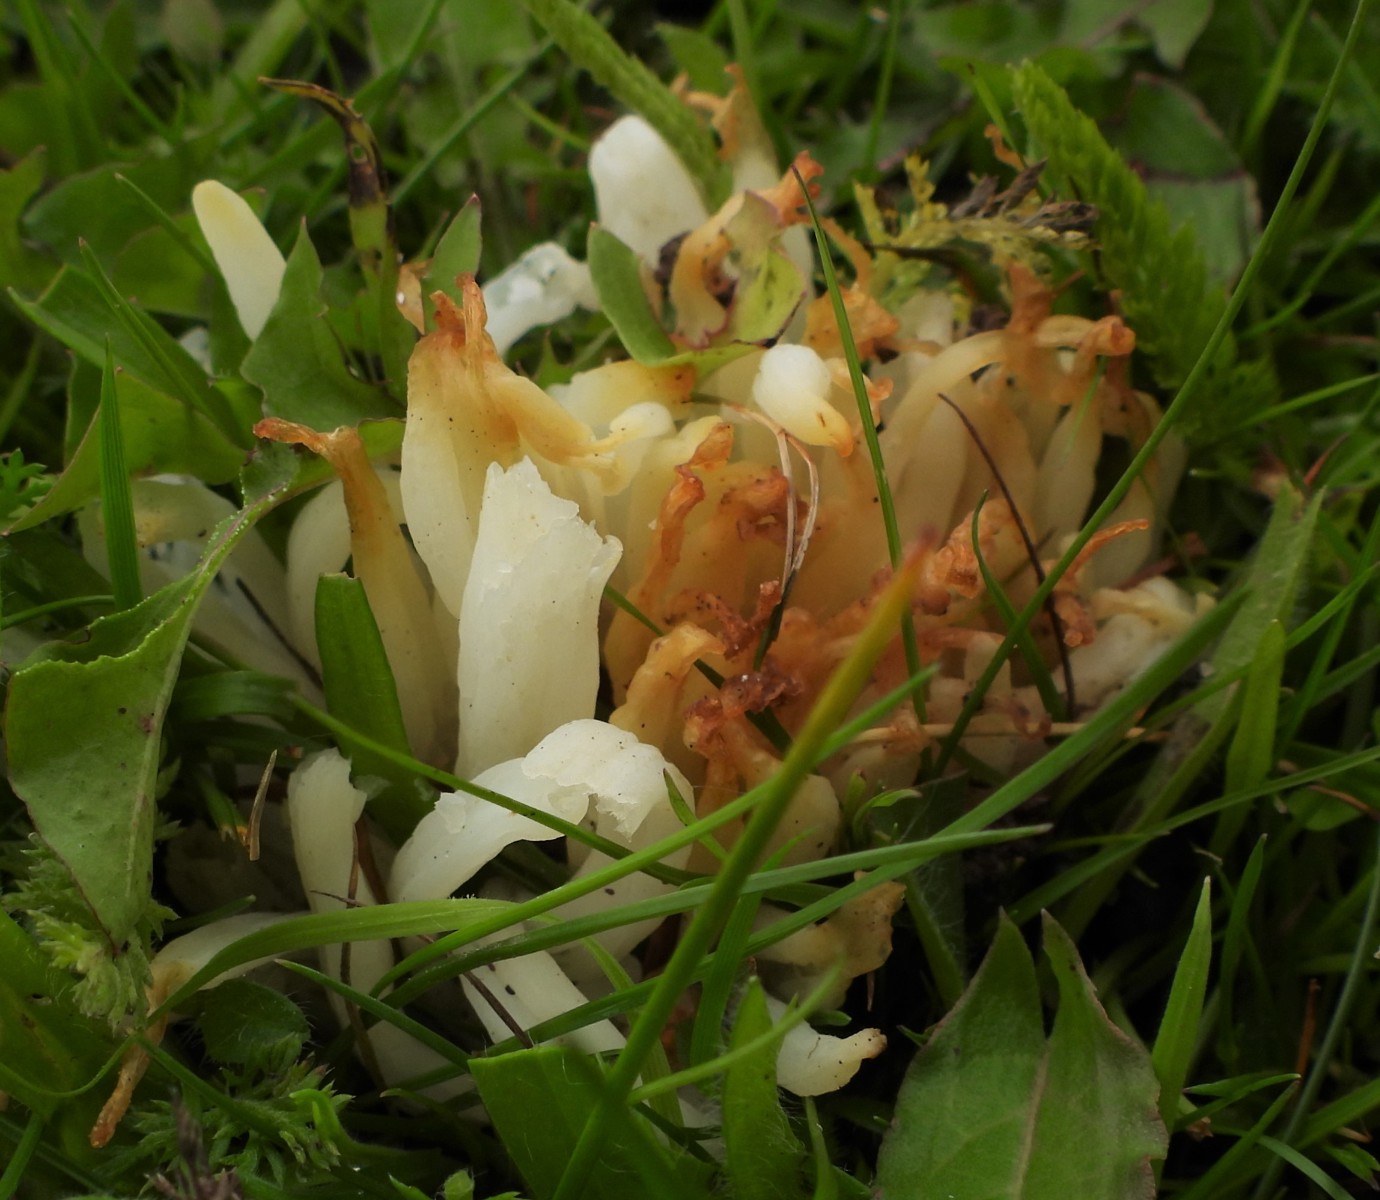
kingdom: Fungi
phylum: Basidiomycota
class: Agaricomycetes
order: Agaricales
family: Clavariaceae
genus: Clavaria
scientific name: Clavaria fragilis
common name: bugtet køllesvamp
